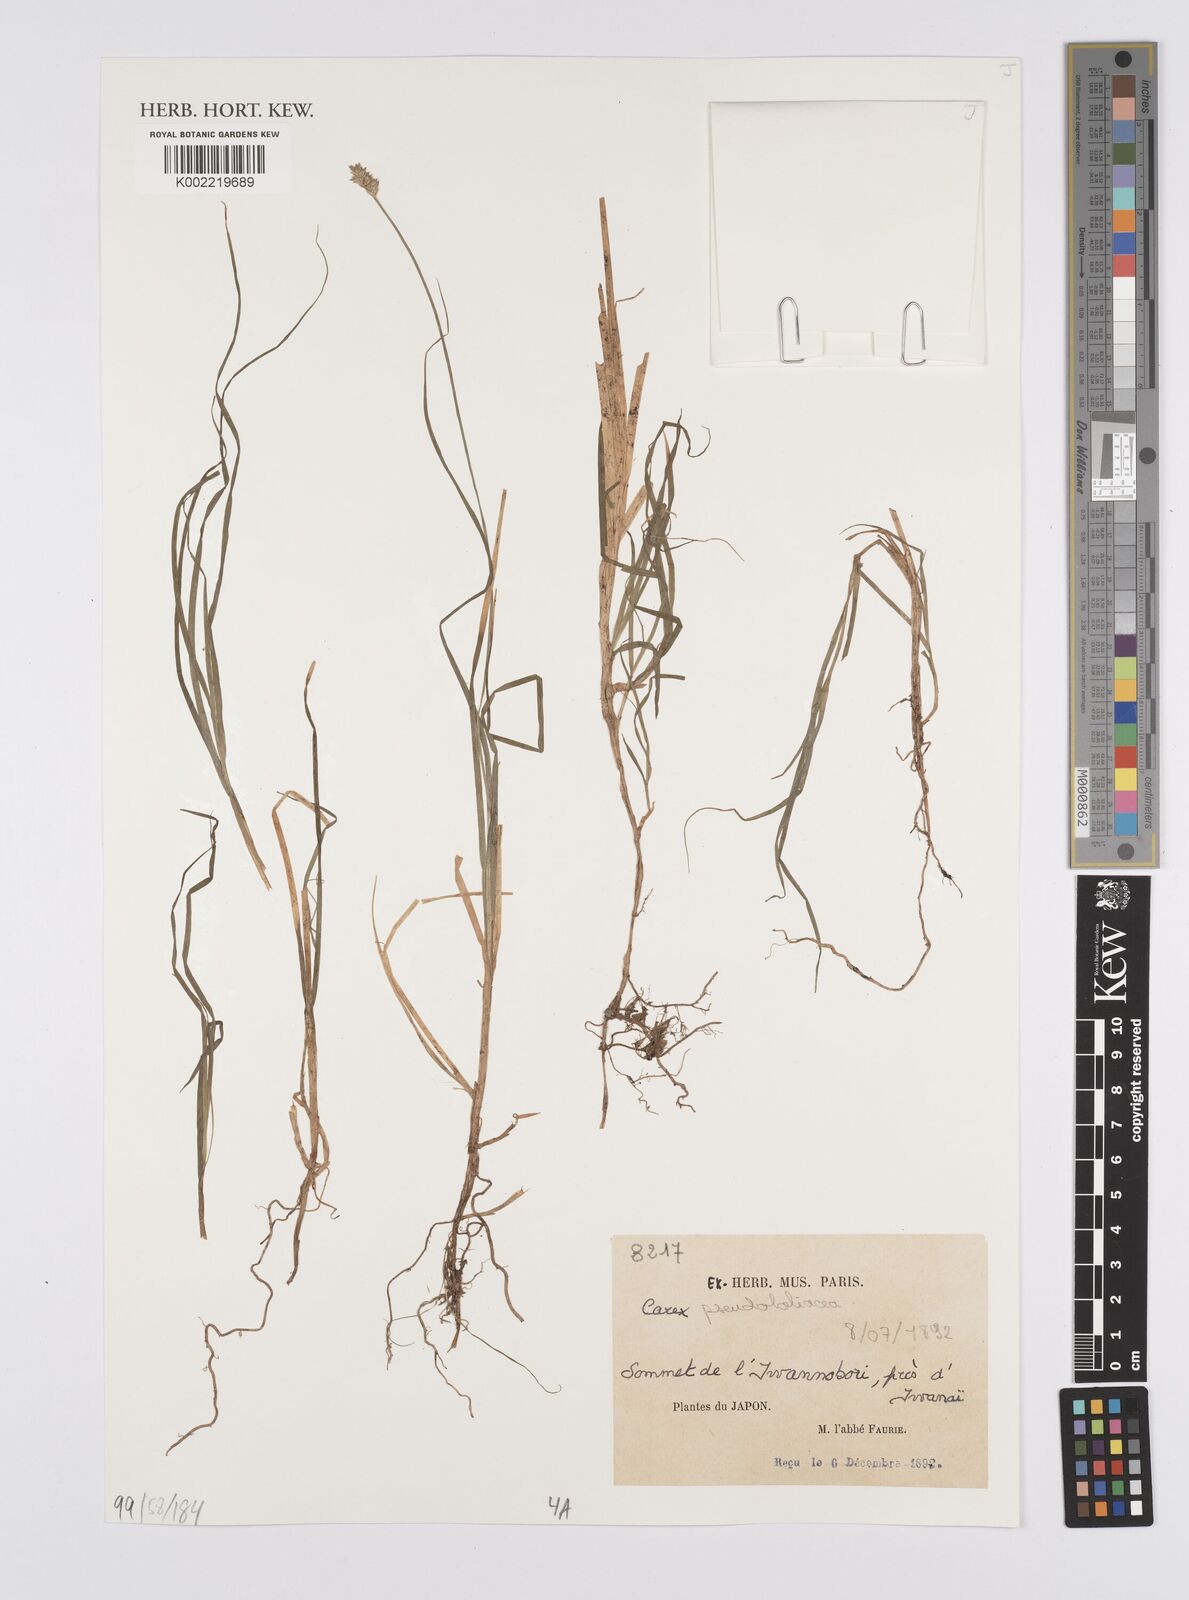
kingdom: Plantae
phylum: Tracheophyta
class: Liliopsida
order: Poales
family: Cyperaceae
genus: Carex
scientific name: Carex pseudololiacea
